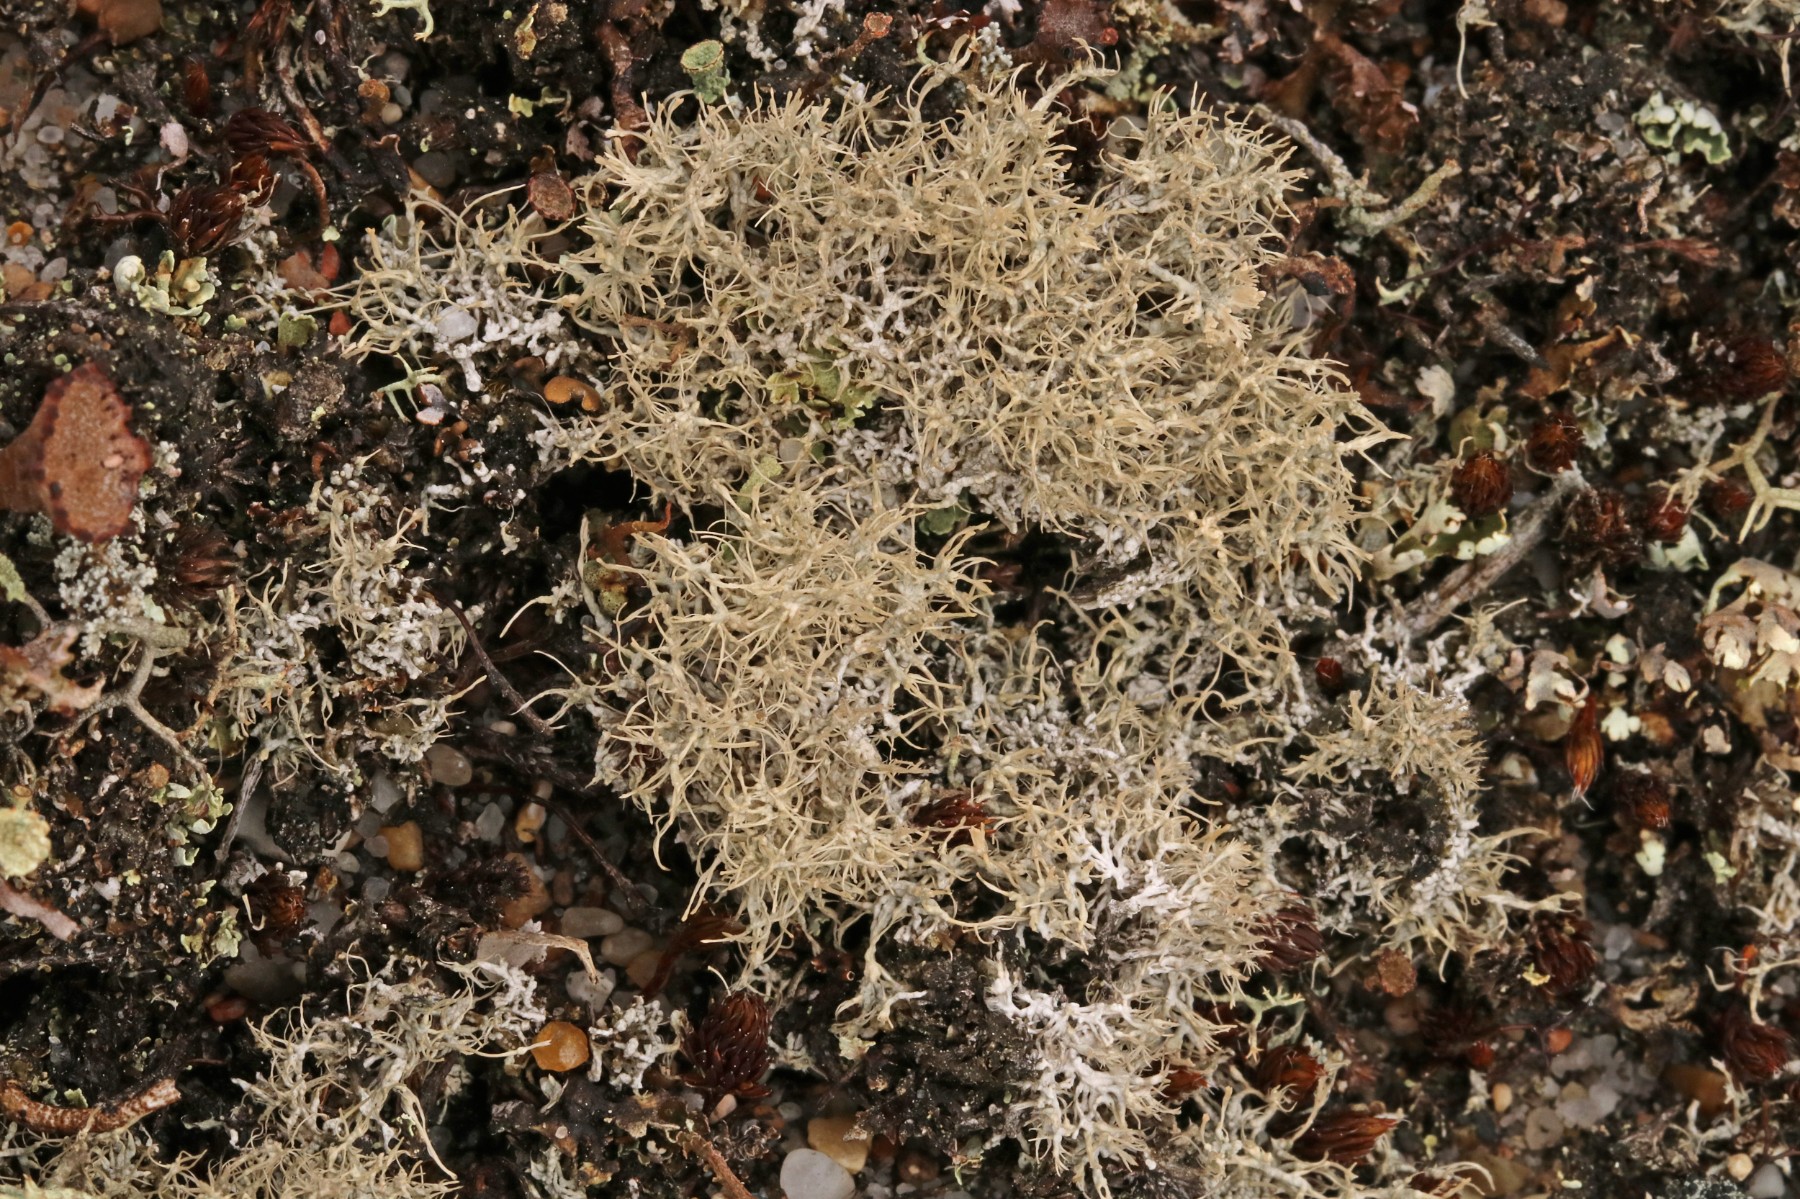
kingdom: Fungi
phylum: Ascomycota
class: Lecanoromycetes
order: Pertusariales
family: Ochrolechiaceae
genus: Ochrolechia
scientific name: Ochrolechia frigida
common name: fjeld-blegskivelav
